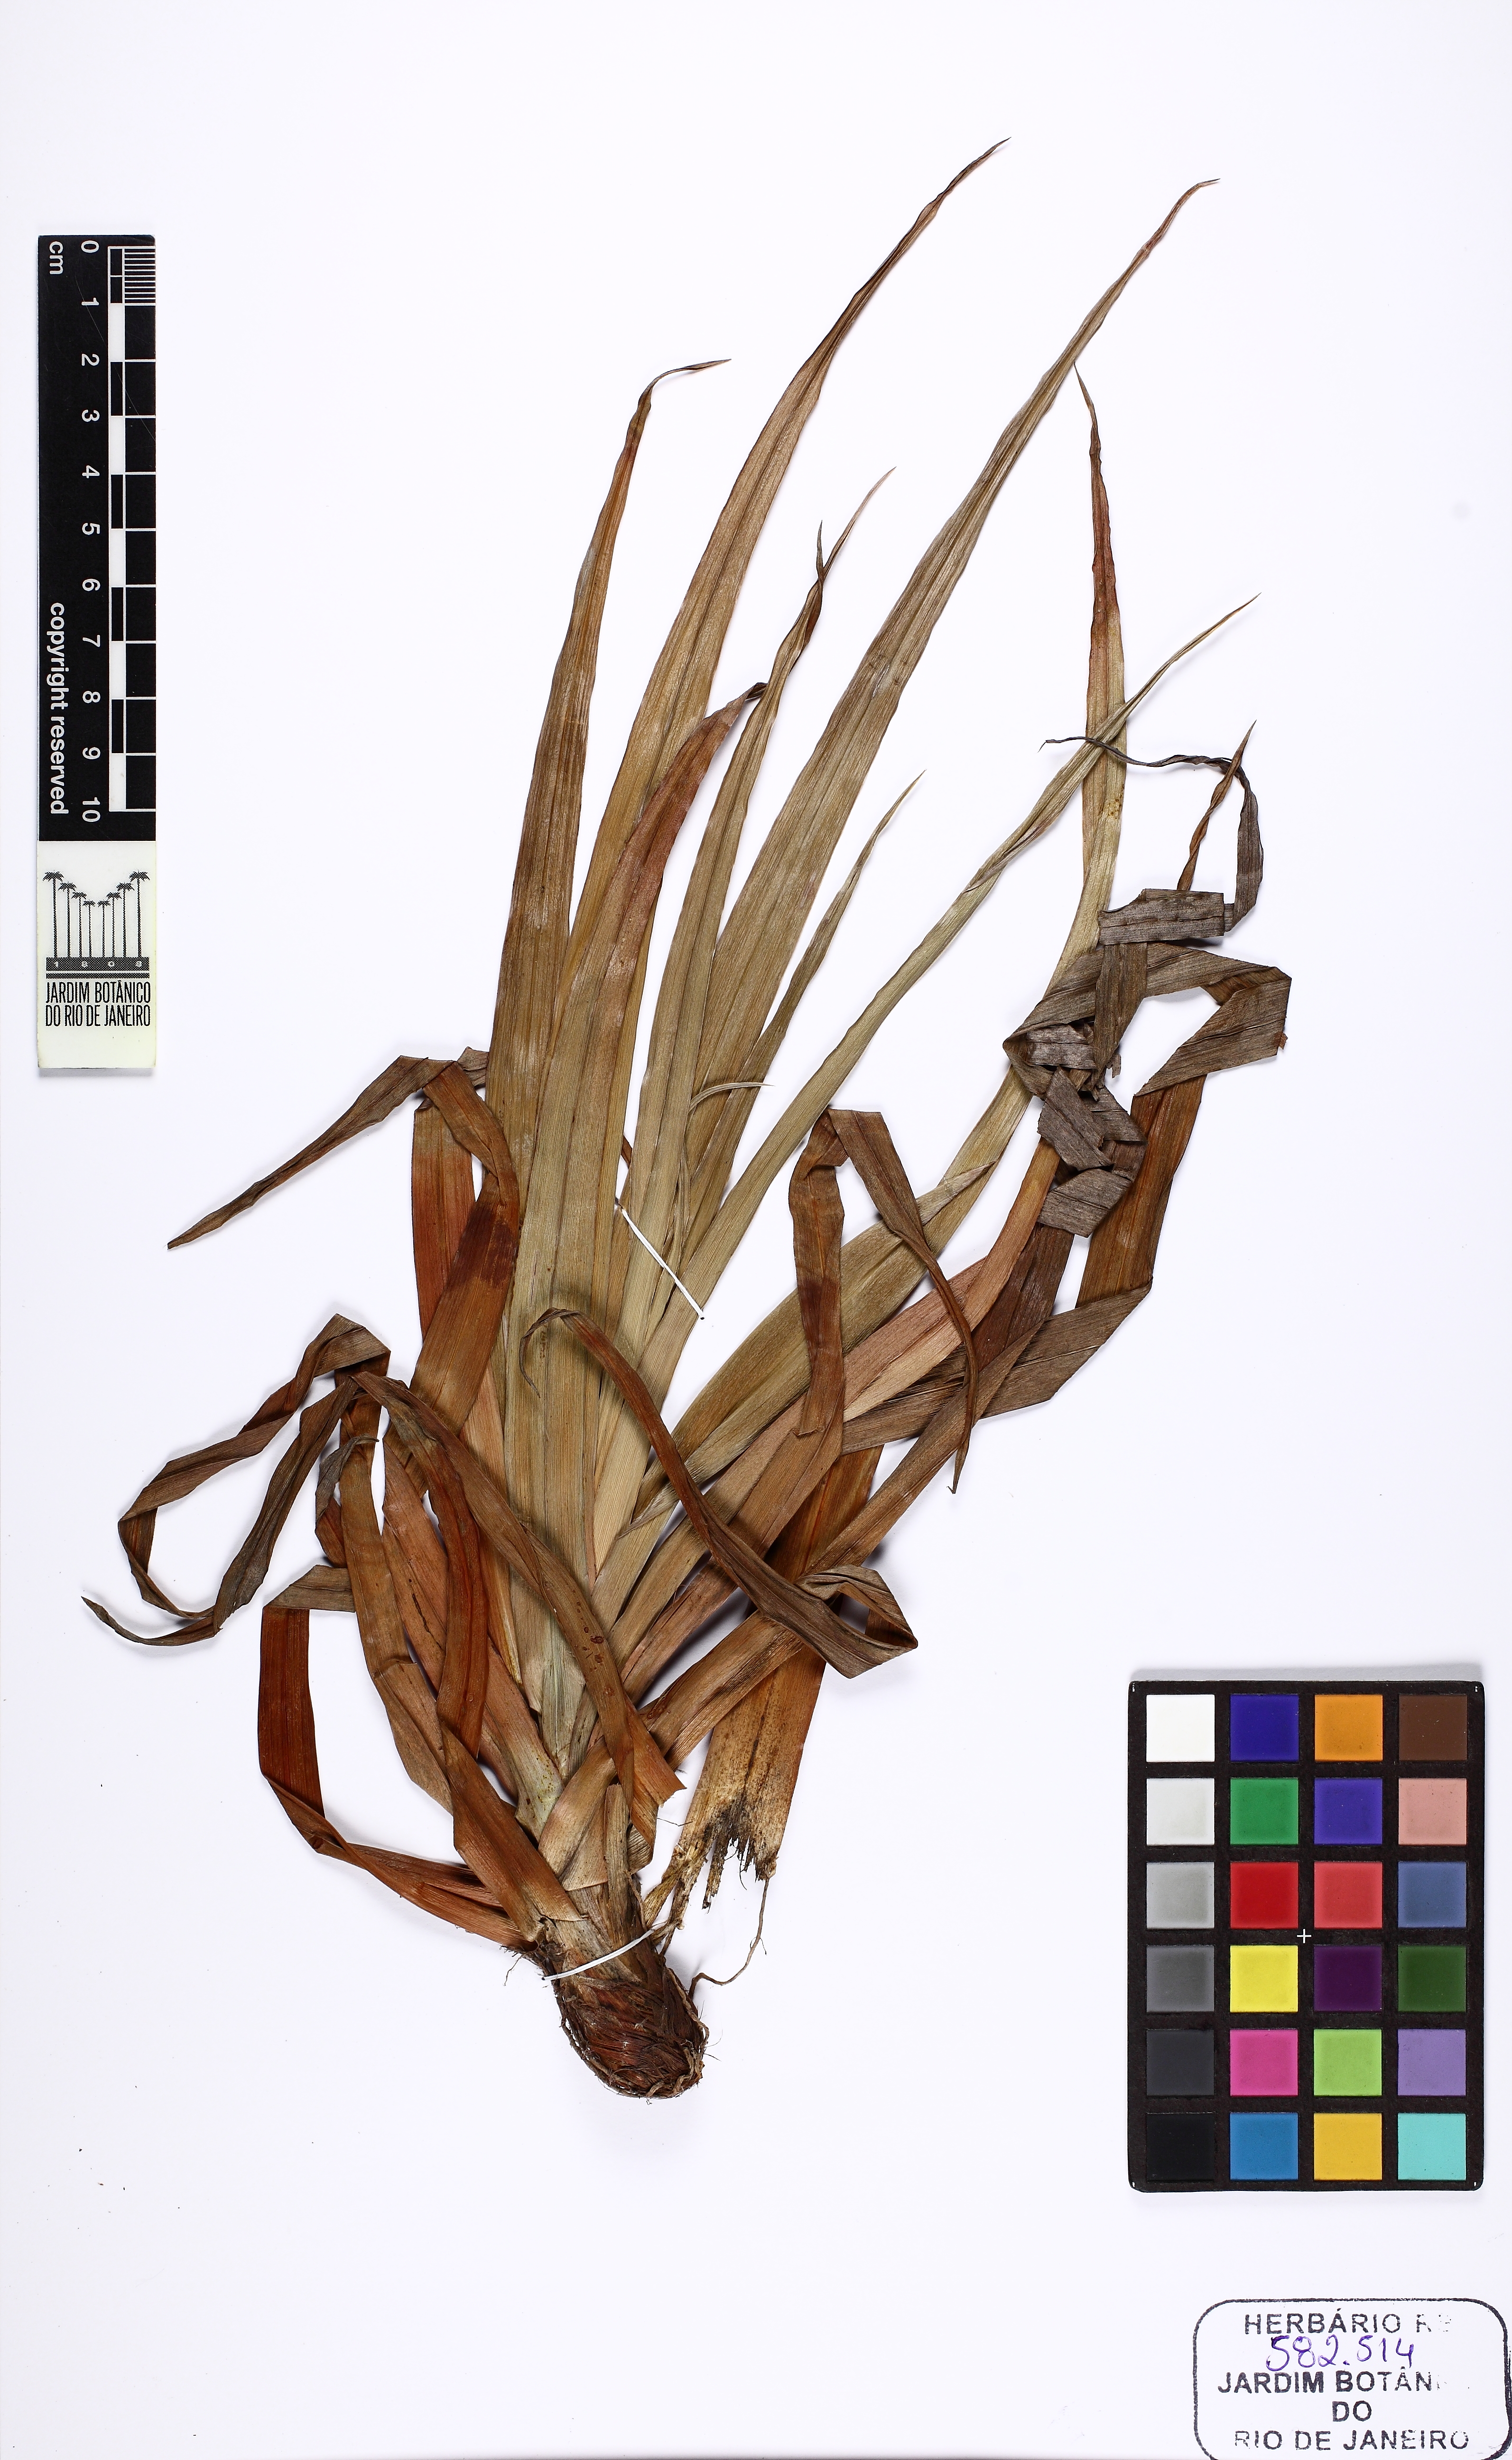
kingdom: Plantae
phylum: Tracheophyta
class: Liliopsida
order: Poales
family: Cyperaceae
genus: Cyperus
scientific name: Cyperus coriifolius
